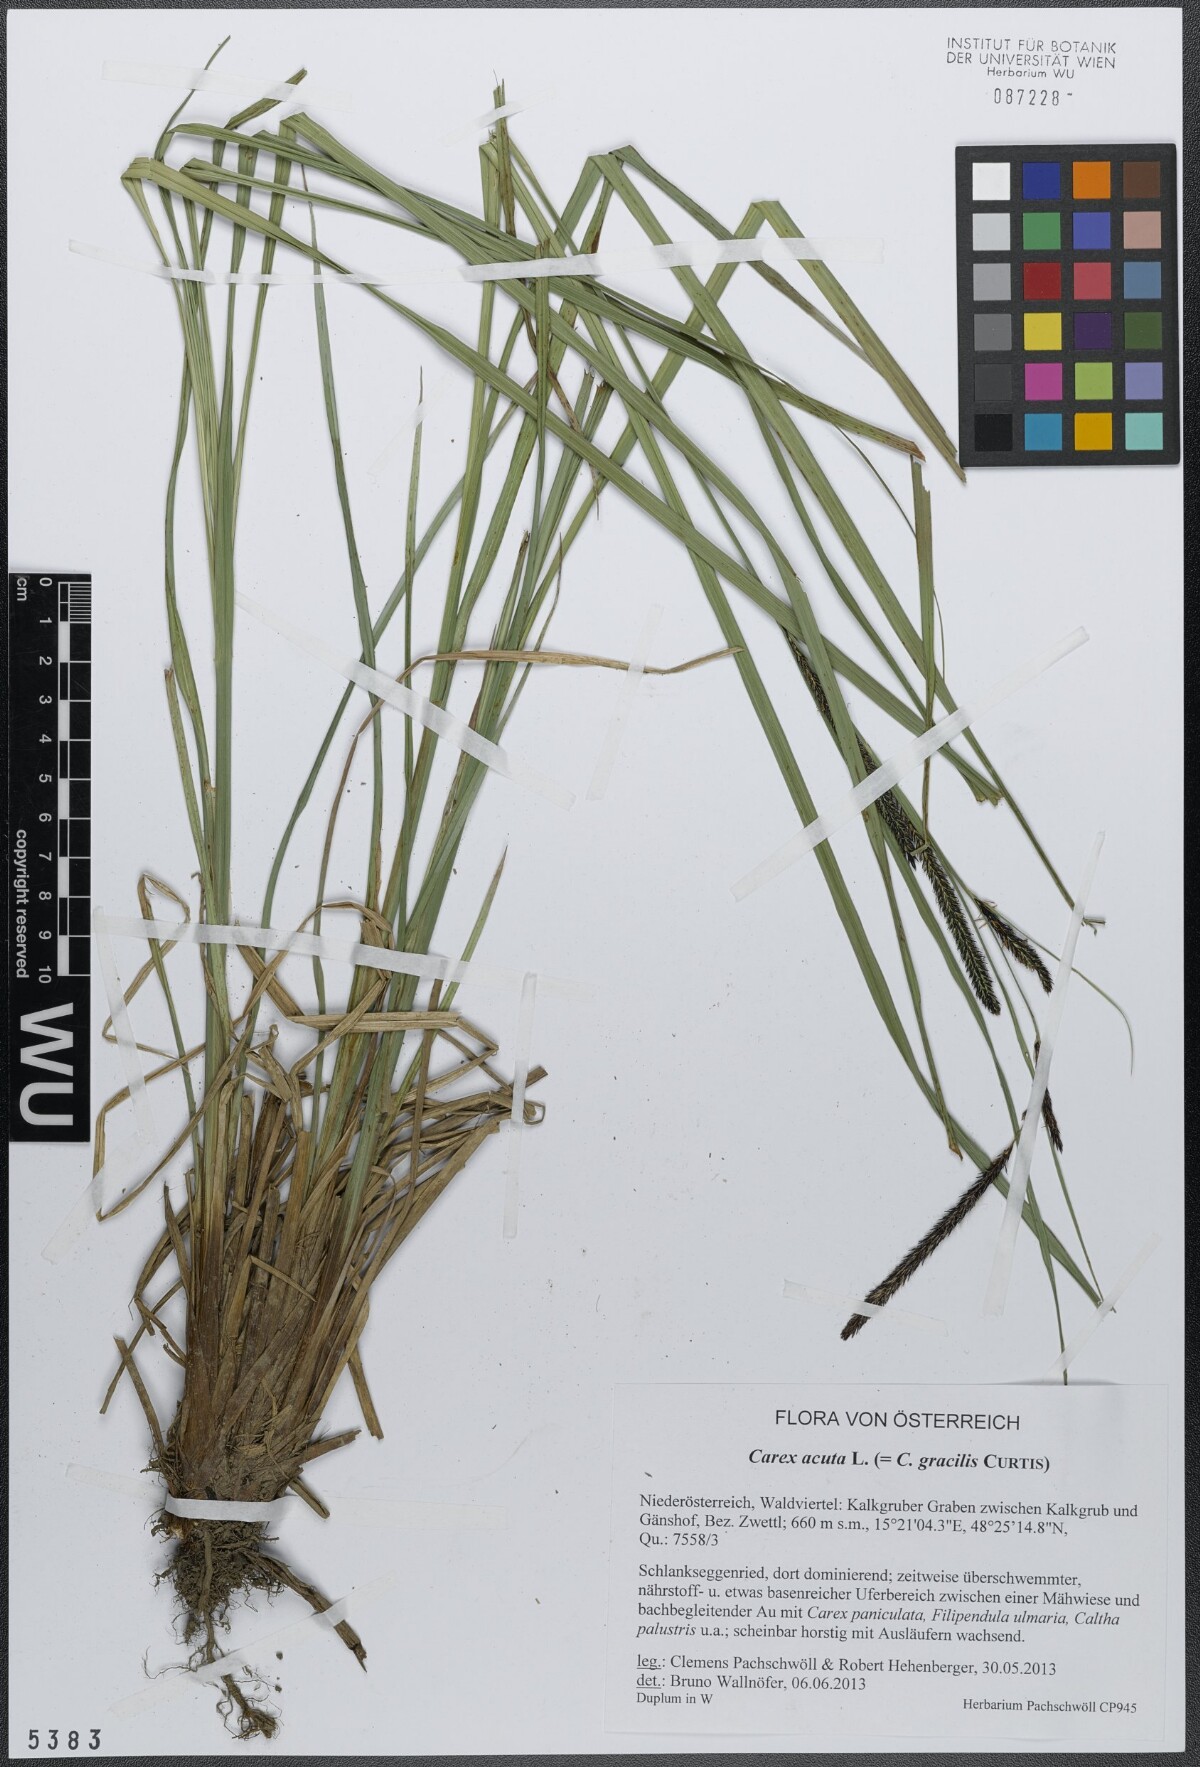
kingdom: Plantae
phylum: Tracheophyta
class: Liliopsida
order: Poales
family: Cyperaceae
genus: Carex
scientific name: Carex acuta
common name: Slender tufted-sedge
